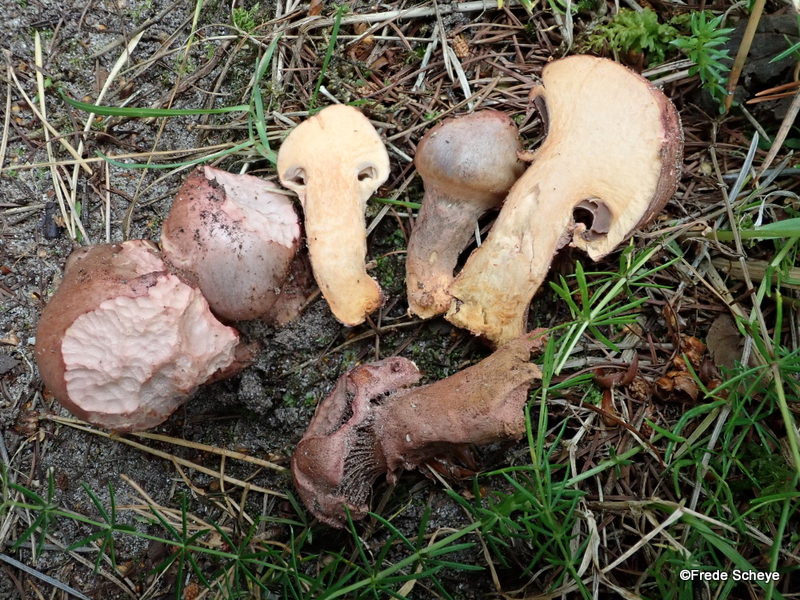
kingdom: Fungi
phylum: Basidiomycota
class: Agaricomycetes
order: Boletales
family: Gomphidiaceae
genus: Chroogomphus
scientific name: Chroogomphus rutilus
